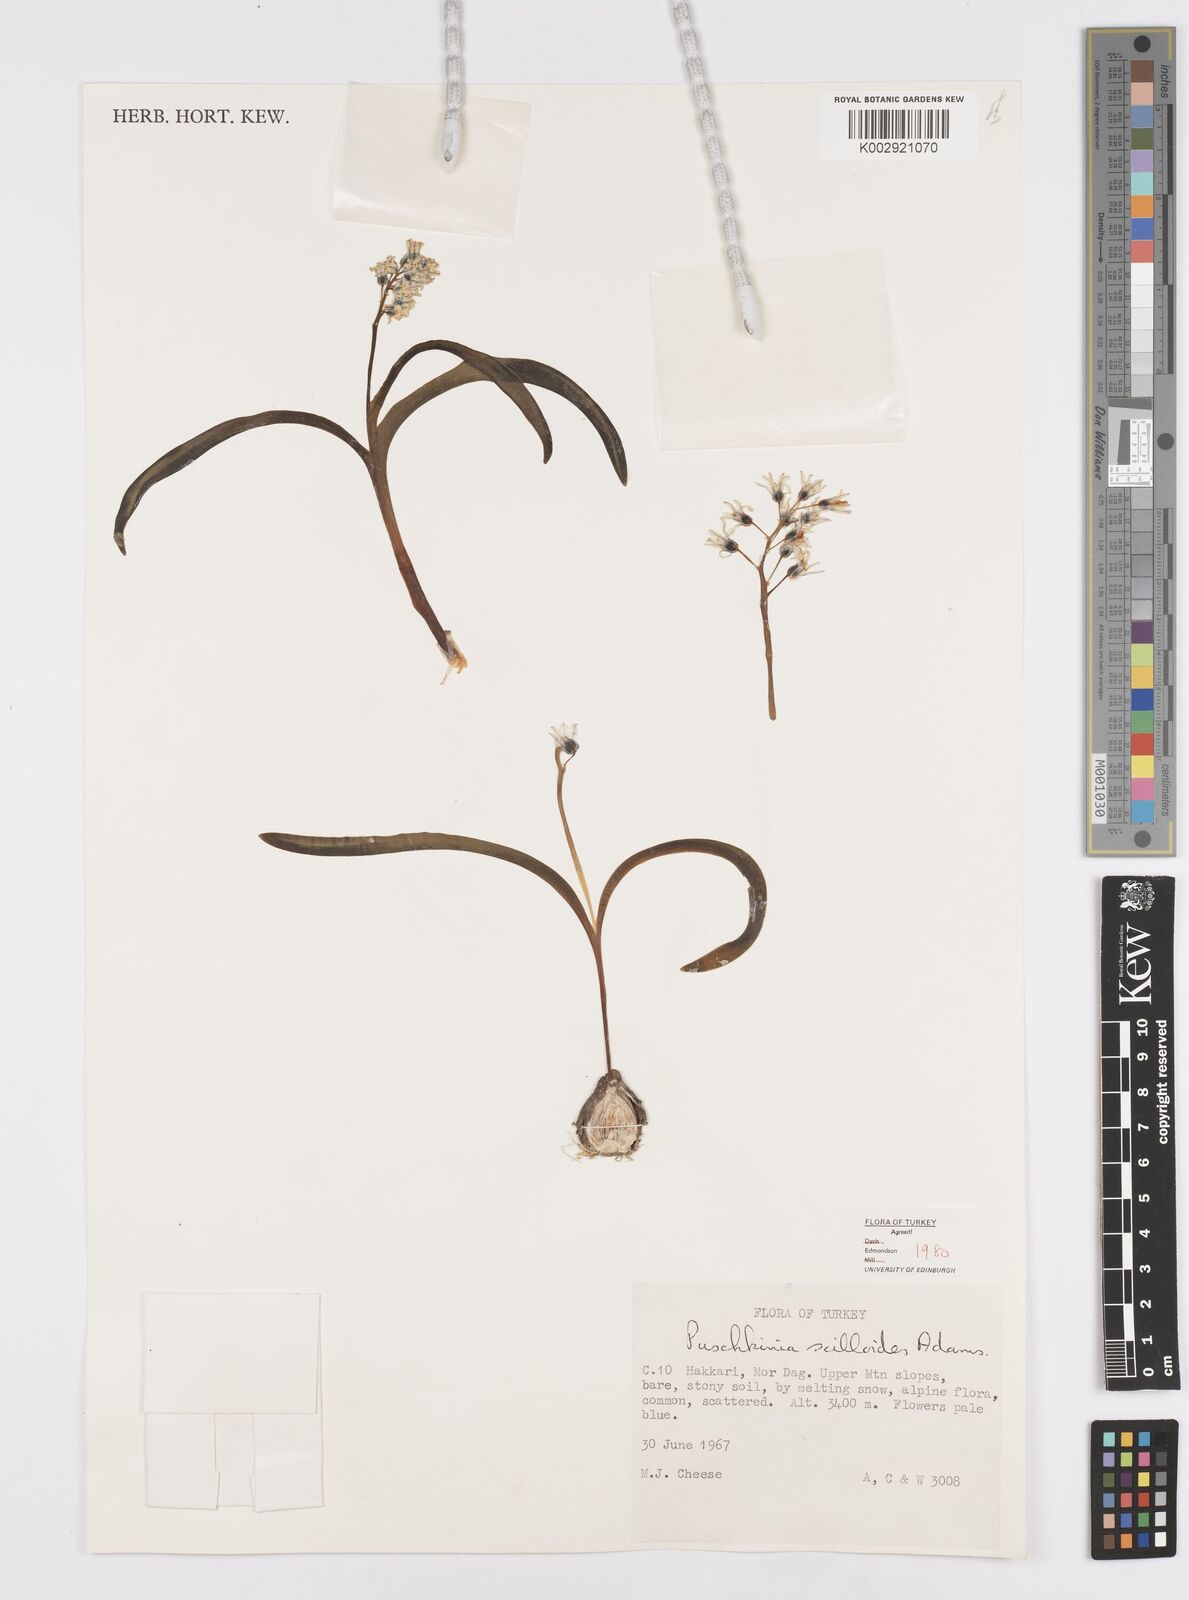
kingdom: Plantae
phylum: Tracheophyta
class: Liliopsida
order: Asparagales
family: Asparagaceae
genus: Puschkinia
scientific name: Puschkinia scilloides
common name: Striped squill
